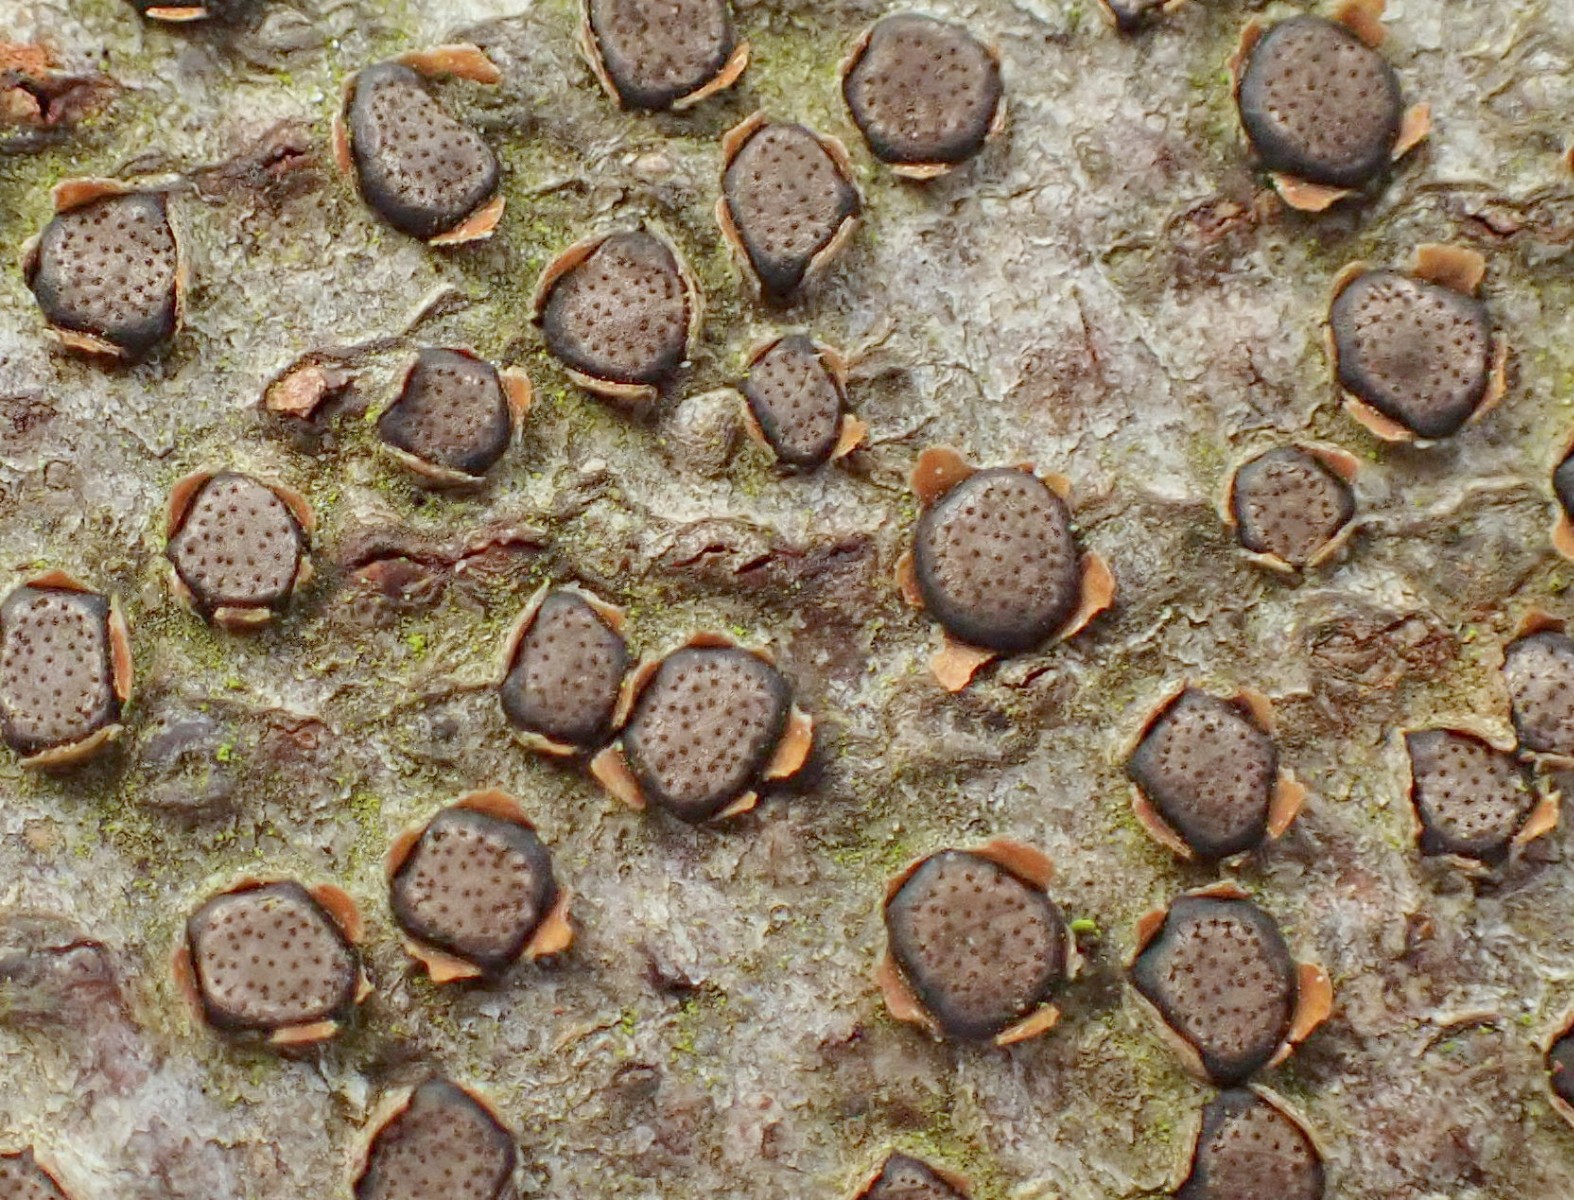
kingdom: Fungi
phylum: Ascomycota
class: Sordariomycetes
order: Xylariales
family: Diatrypaceae
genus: Diatrype
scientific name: Diatrype disciformis
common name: kant-kulskorpe
